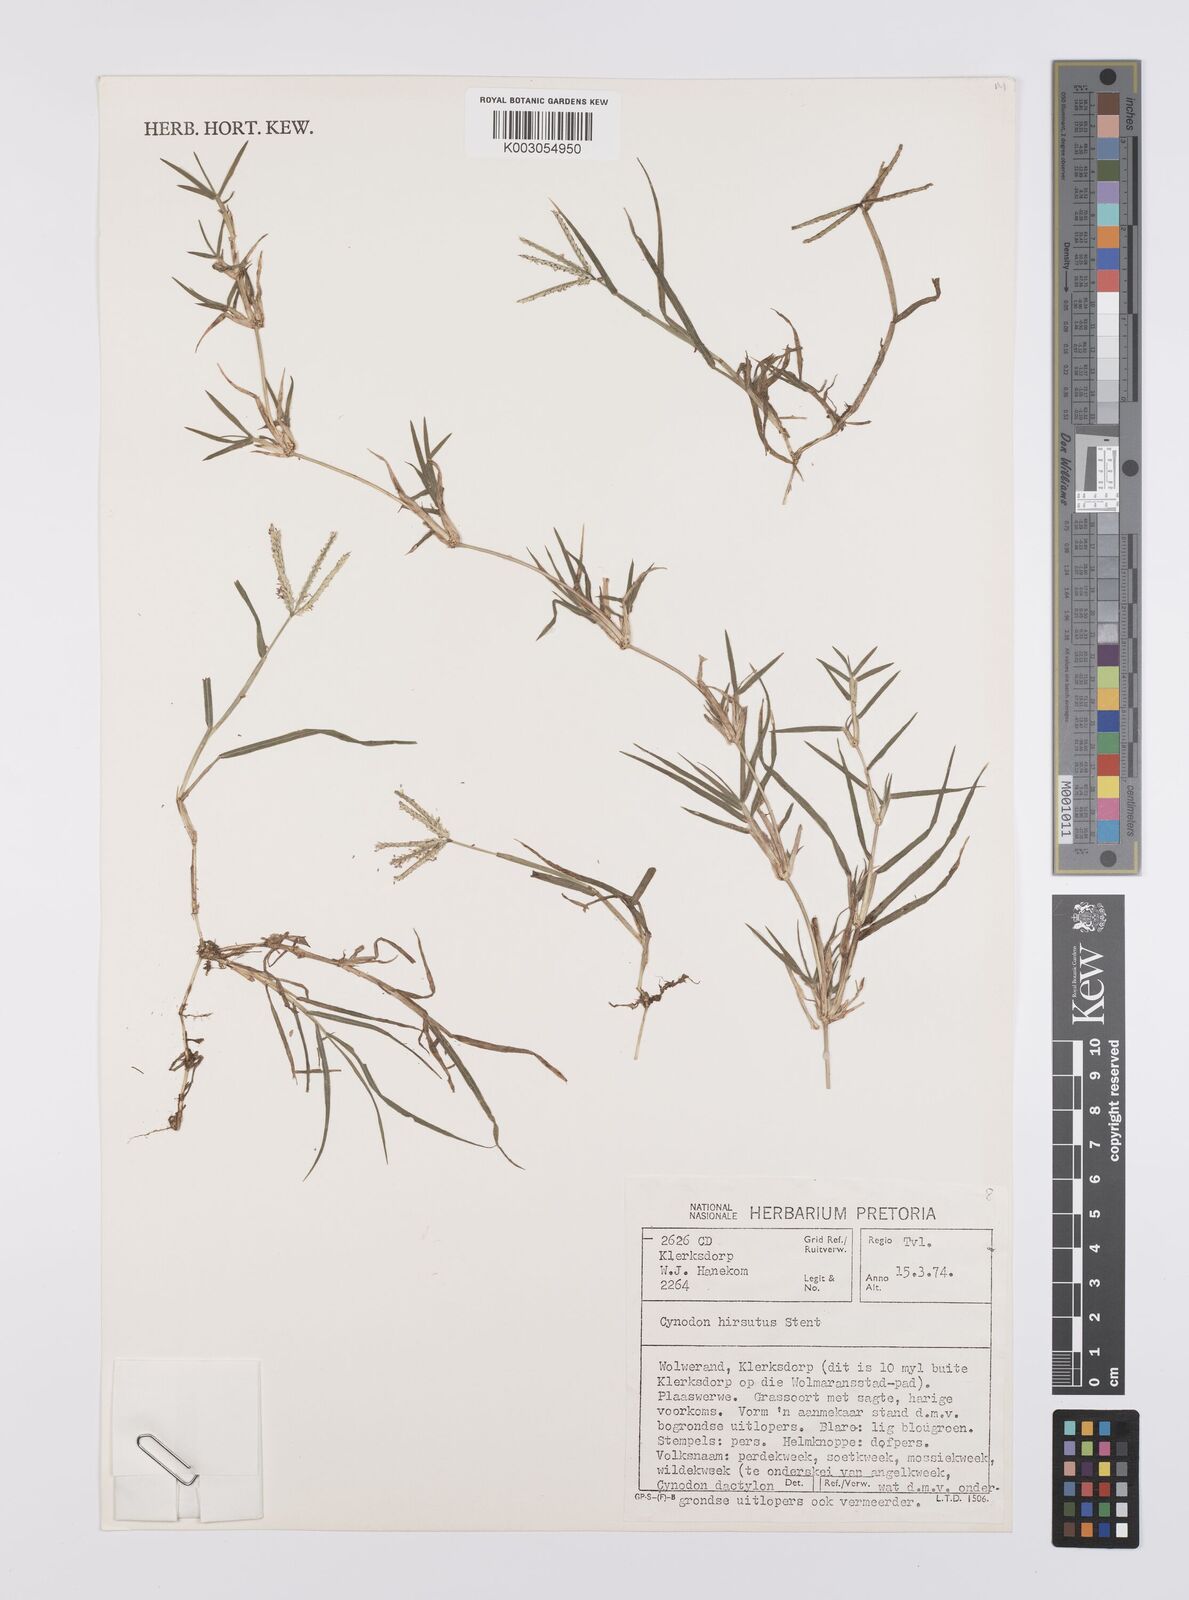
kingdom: Plantae
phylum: Tracheophyta
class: Liliopsida
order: Poales
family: Poaceae
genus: Cynodon
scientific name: Cynodon incompletus
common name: African bermuda-grass
